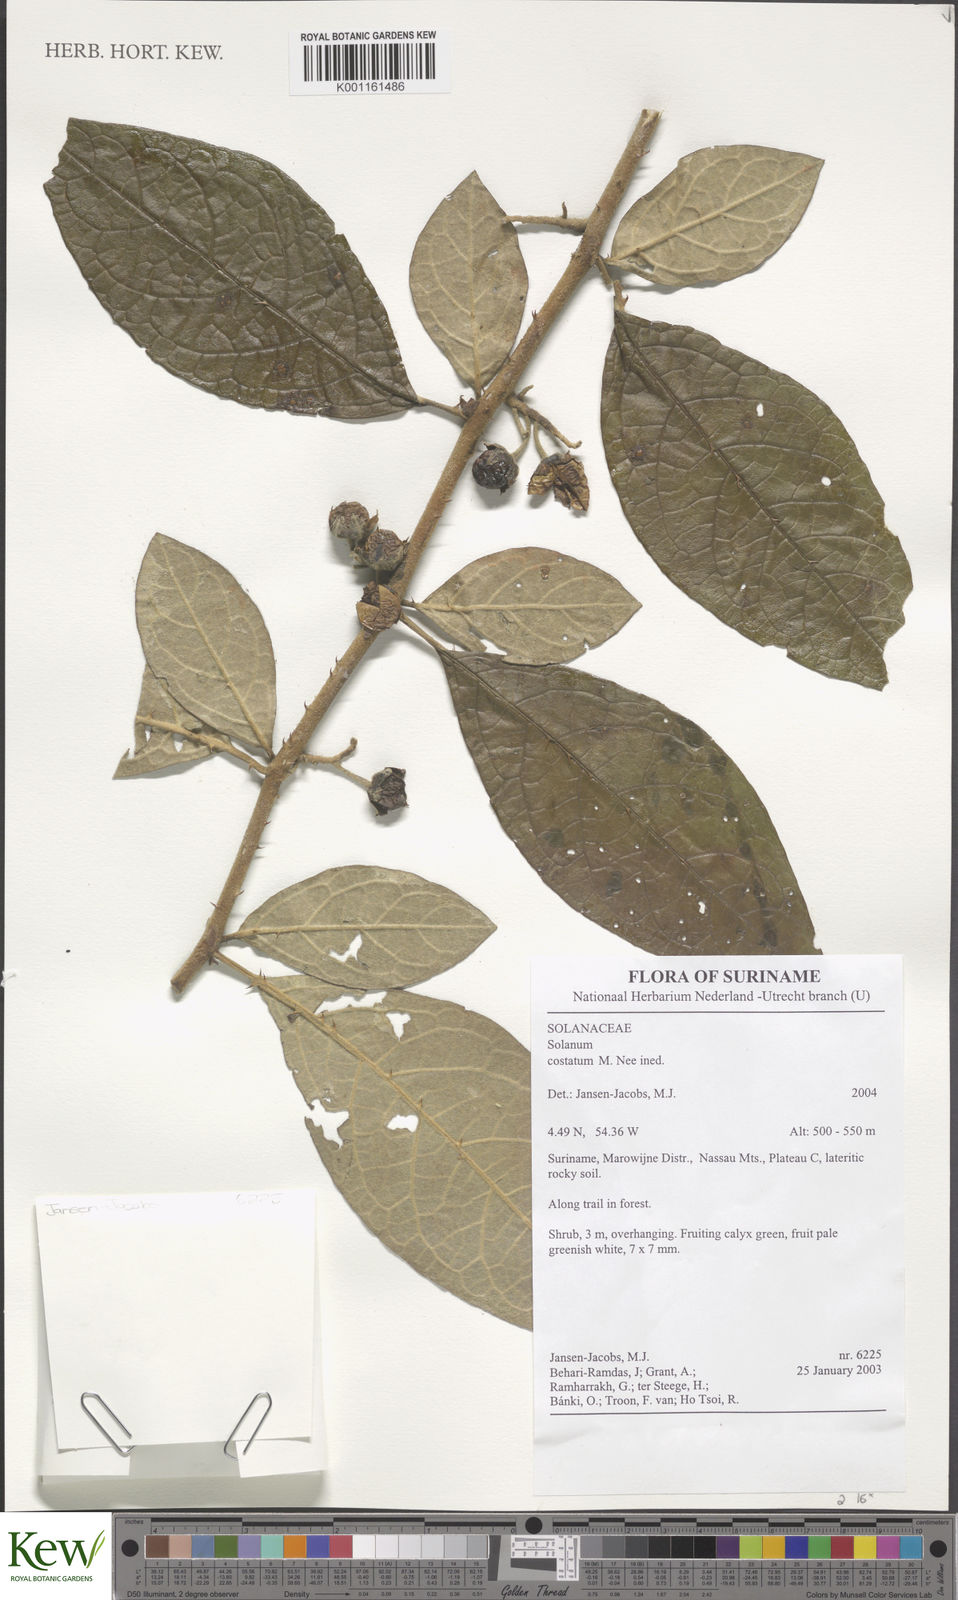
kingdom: Plantae
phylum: Tracheophyta
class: Magnoliopsida
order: Solanales
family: Solanaceae
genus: Solanum
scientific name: Solanum costatum
